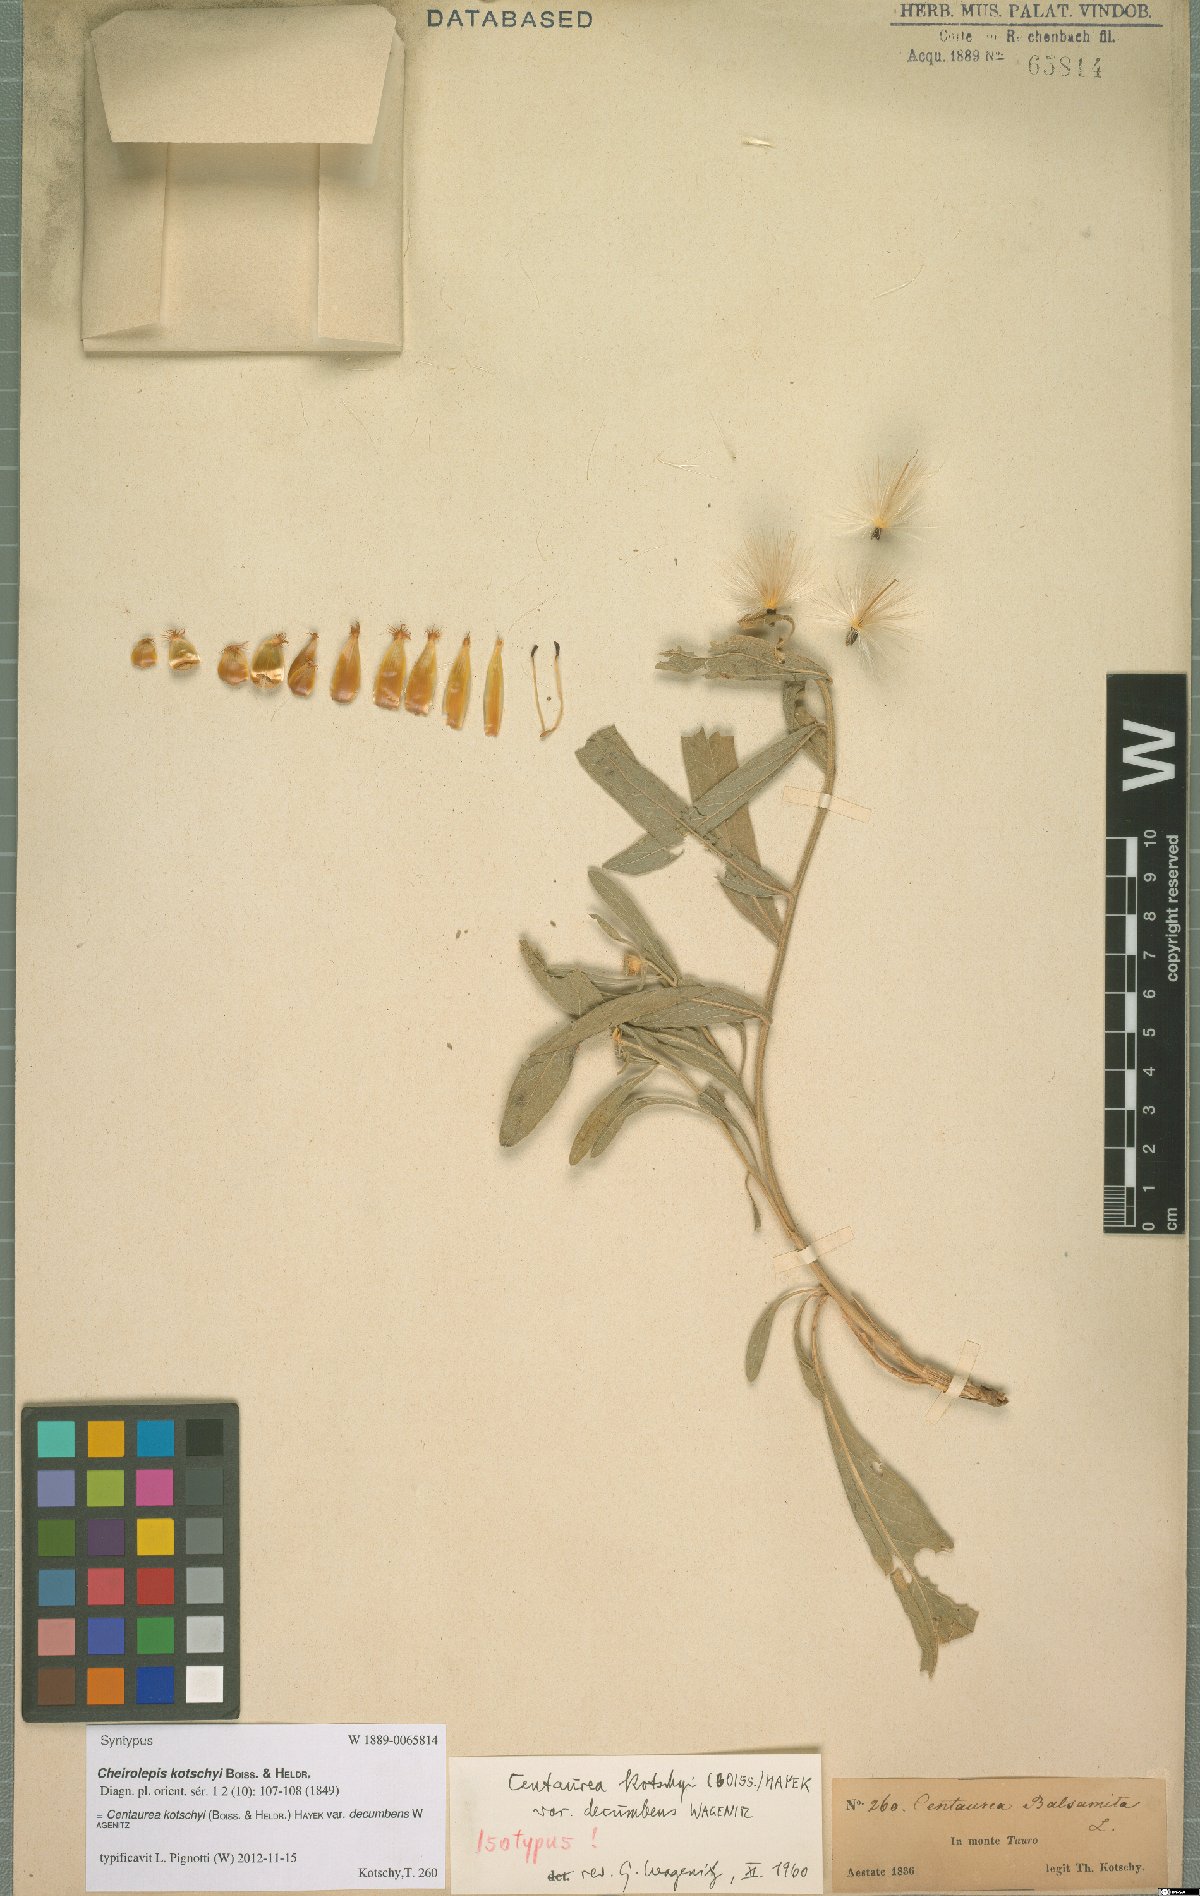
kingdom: Plantae
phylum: Tracheophyta
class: Magnoliopsida
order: Asterales
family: Asteraceae
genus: Centaurea
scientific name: Centaurea kotschyi
